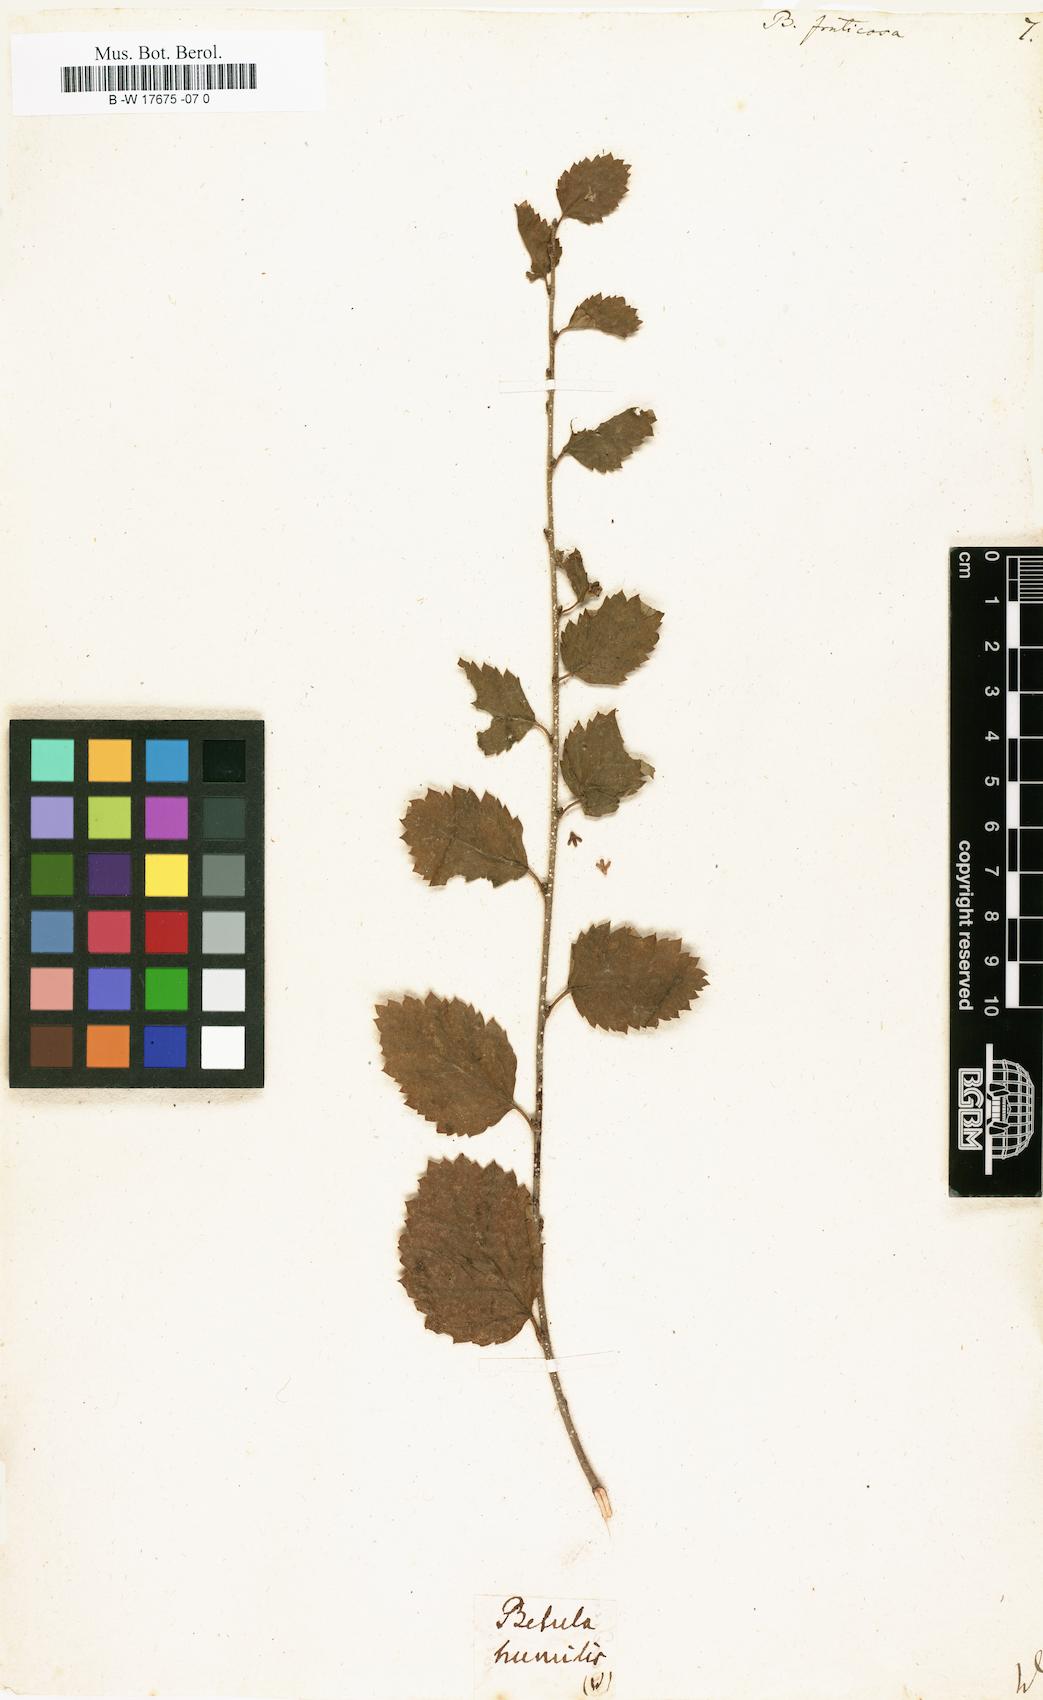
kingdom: Plantae
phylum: Tracheophyta
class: Magnoliopsida
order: Fagales
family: Betulaceae
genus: Betula
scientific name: Betula fruticosa
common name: Japanese bog birch
